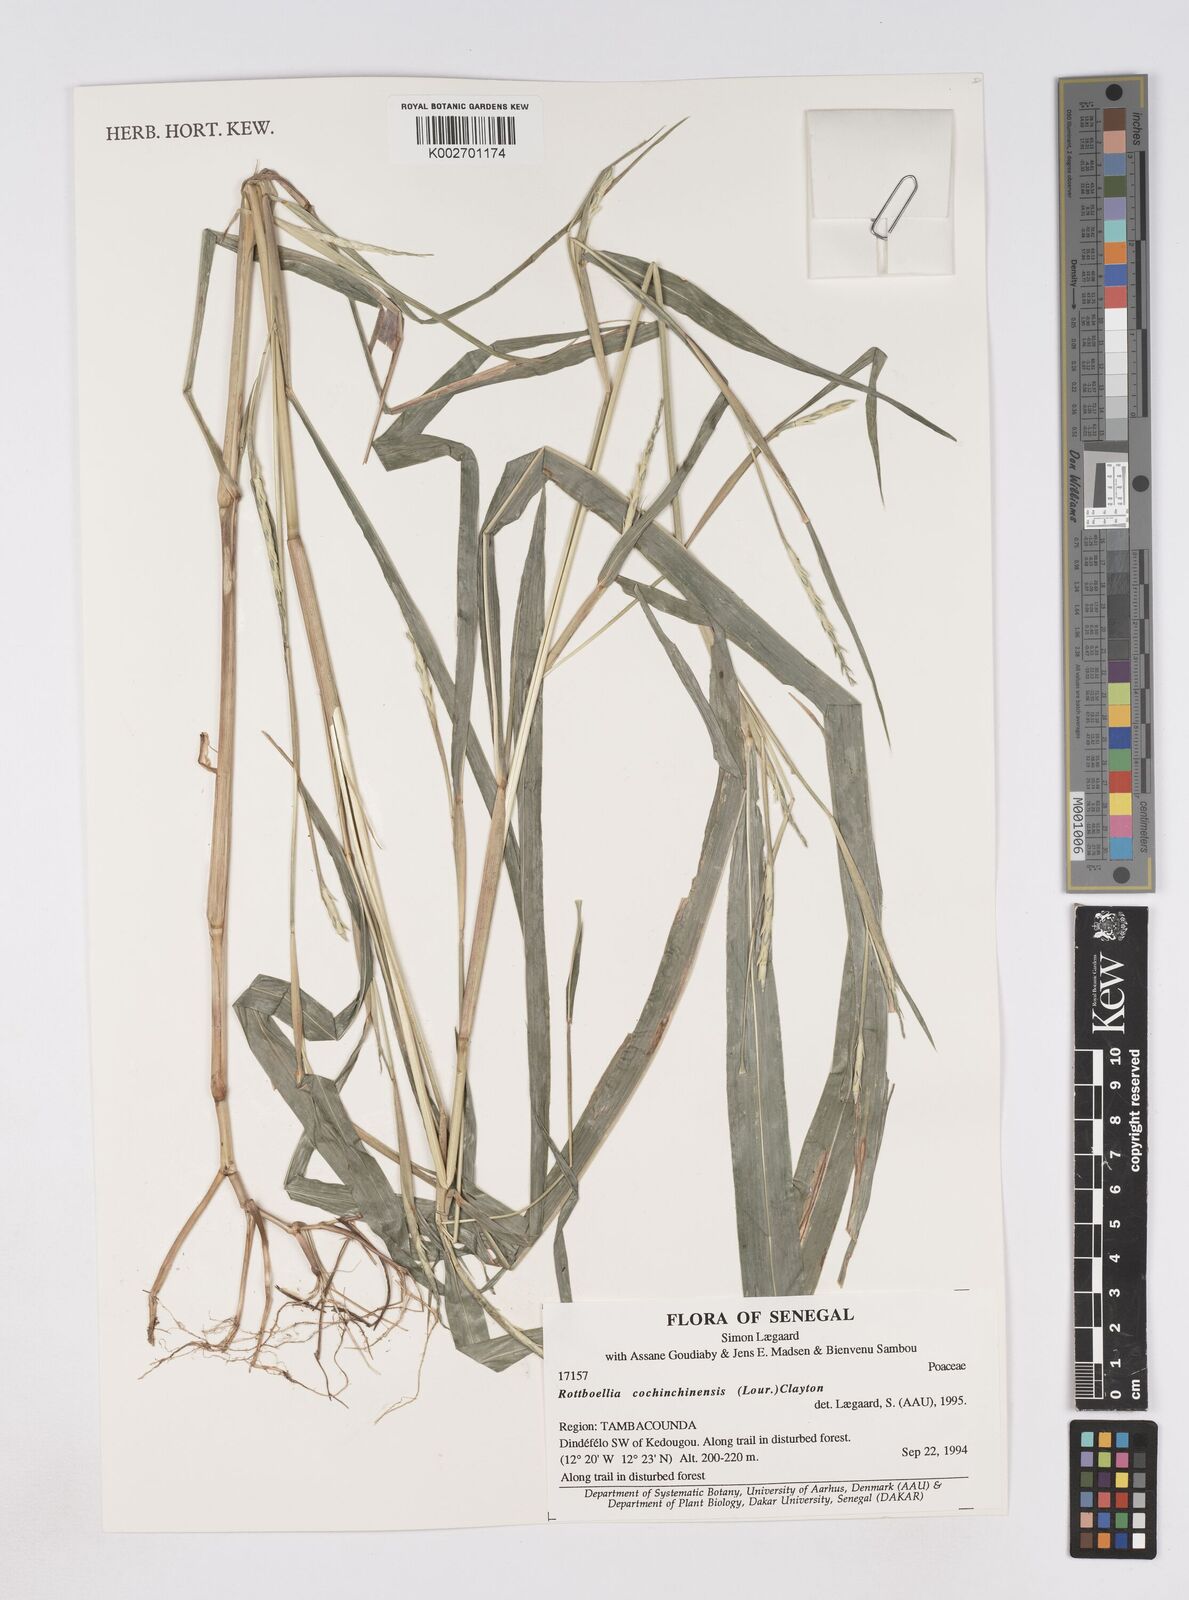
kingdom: Plantae
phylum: Tracheophyta
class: Liliopsida
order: Poales
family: Poaceae
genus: Ophiuros
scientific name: Ophiuros exaltatus
